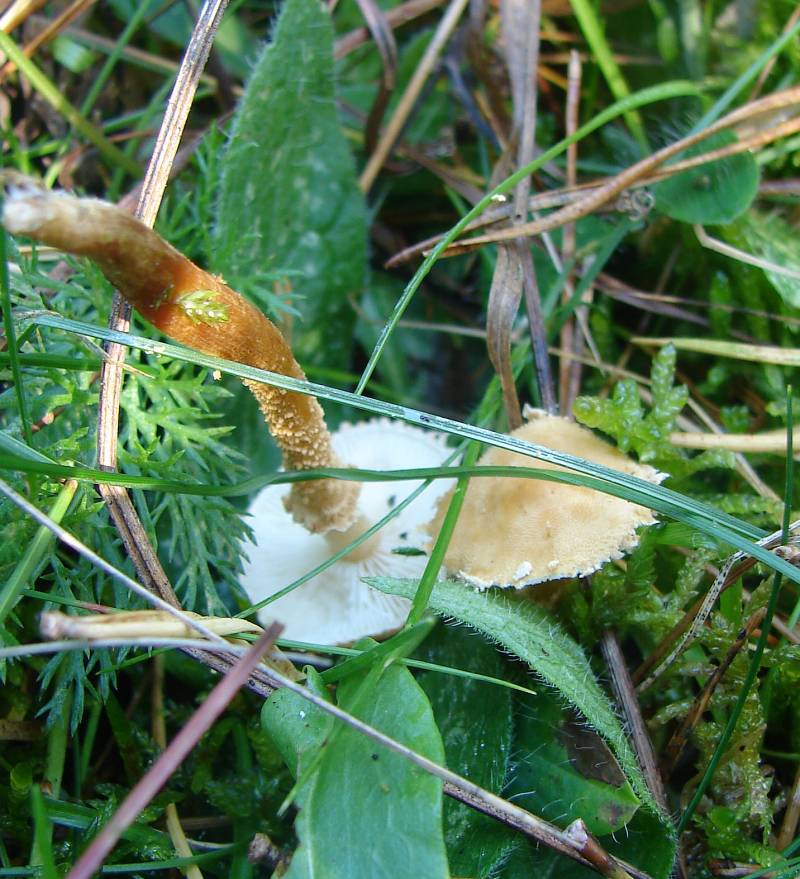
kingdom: Fungi
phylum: Basidiomycota
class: Agaricomycetes
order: Agaricales
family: Tricholomataceae
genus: Cystoderma
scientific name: Cystoderma amianthinum
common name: okkergul grynhat
